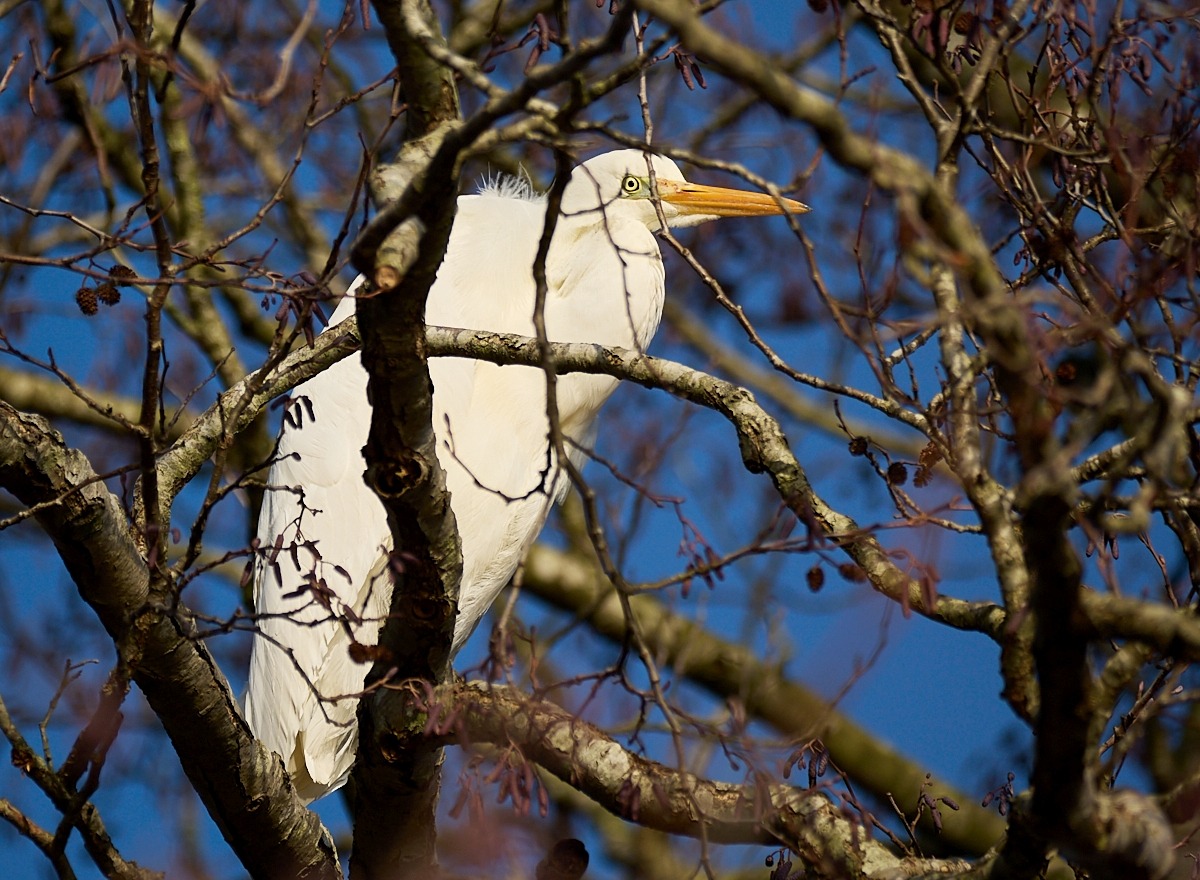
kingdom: Animalia
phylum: Chordata
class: Aves
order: Pelecaniformes
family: Ardeidae
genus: Ardea
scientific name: Ardea alba
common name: Sølvhejre
